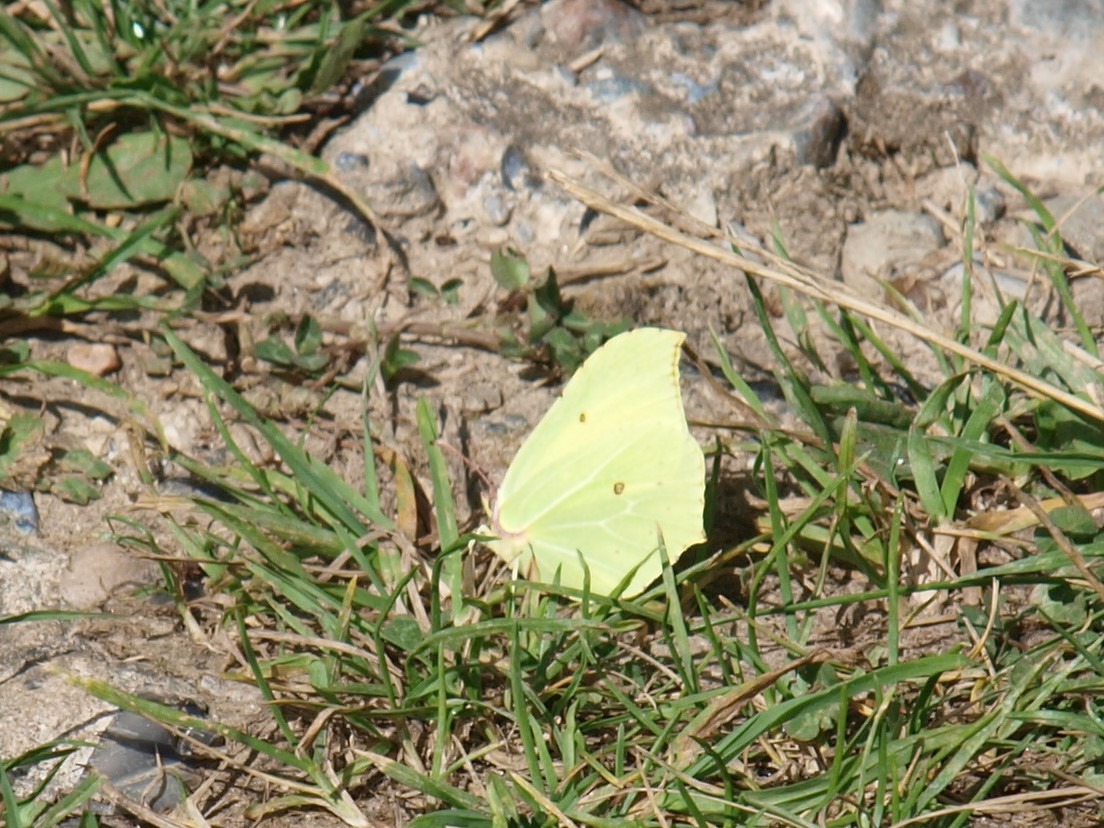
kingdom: Animalia
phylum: Arthropoda
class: Insecta
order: Lepidoptera
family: Pieridae
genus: Gonepteryx
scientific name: Gonepteryx rhamni
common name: Citronsommerfugl
